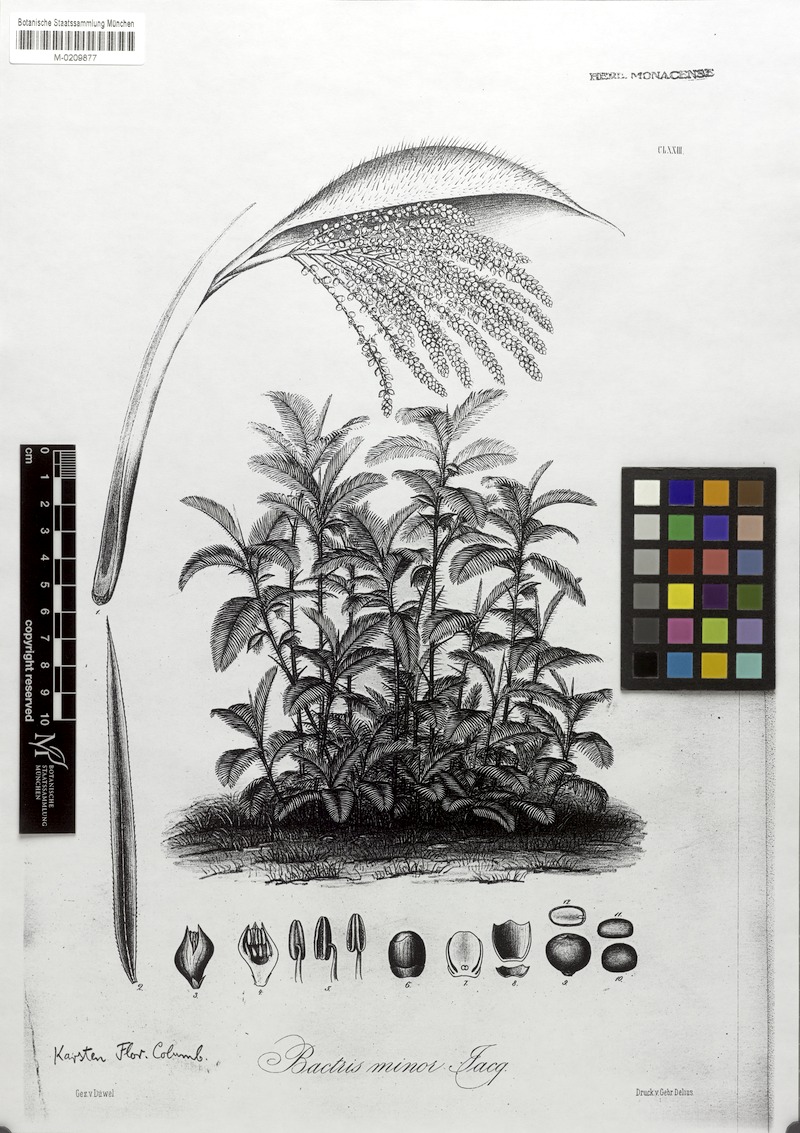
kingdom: Plantae
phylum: Tracheophyta
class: Liliopsida
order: Arecales
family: Arecaceae
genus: Bactris
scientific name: Bactris guineensis
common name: Tobago cane
